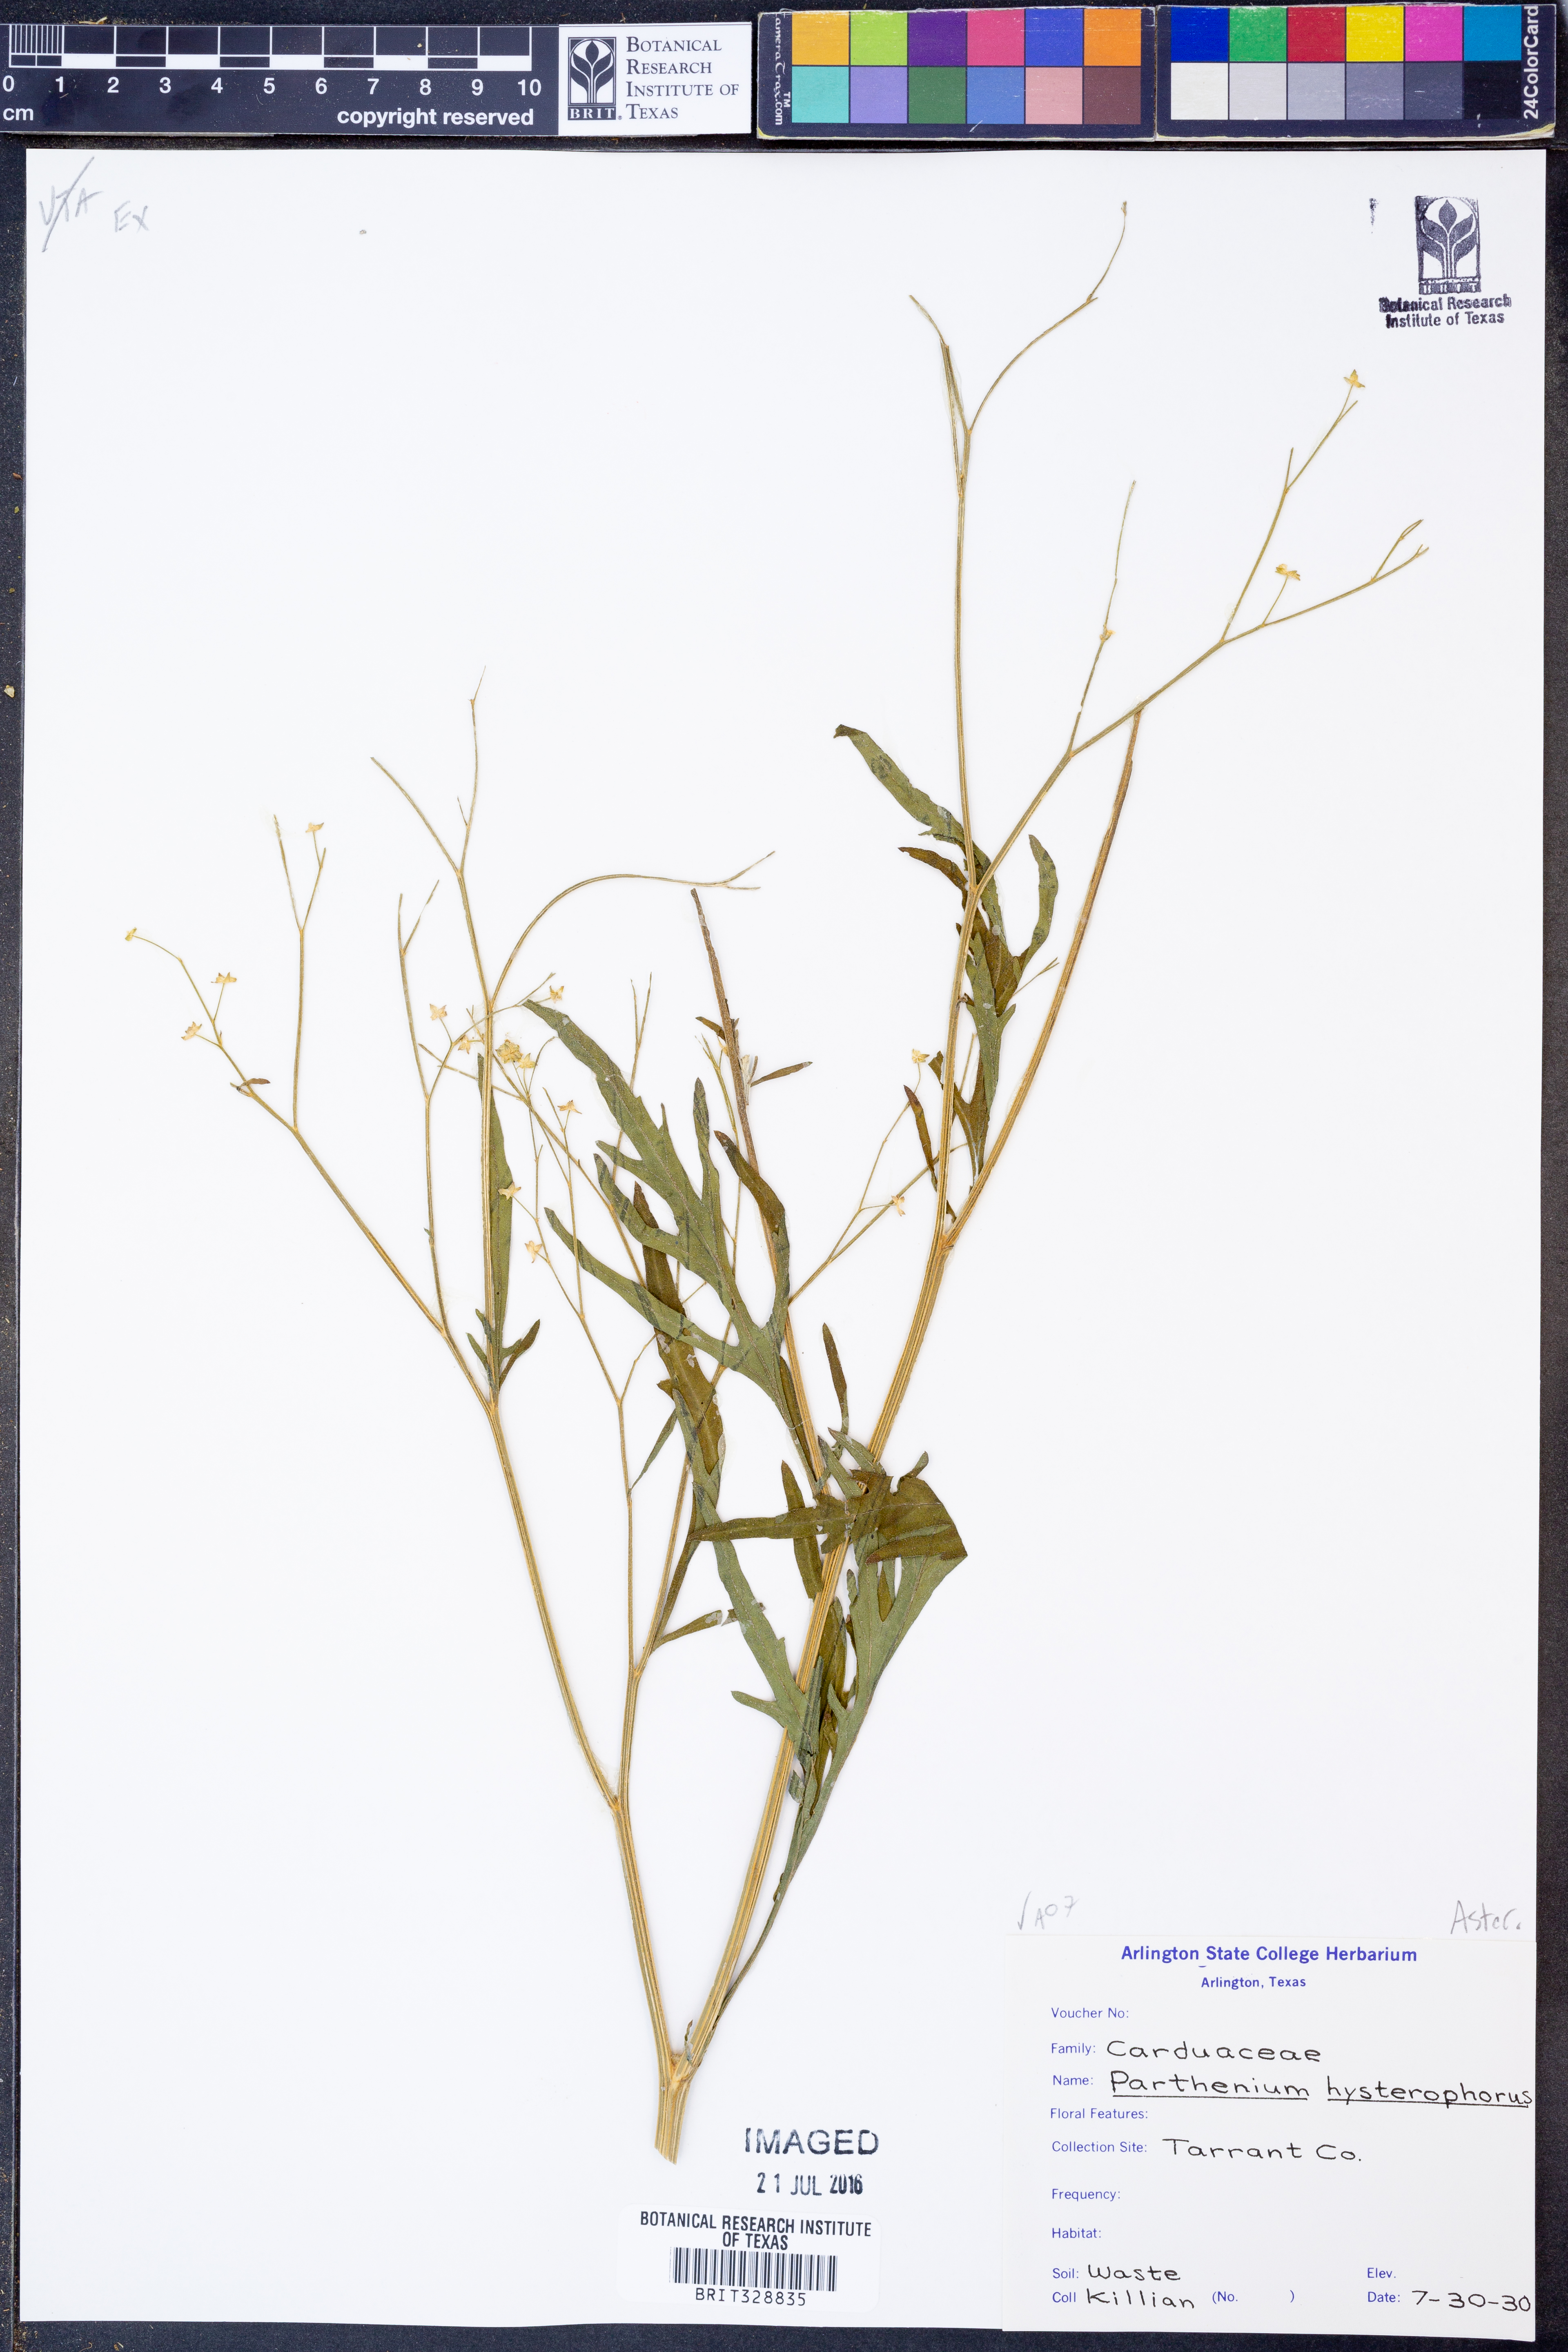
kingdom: Plantae
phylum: Tracheophyta
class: Magnoliopsida
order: Asterales
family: Asteraceae
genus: Parthenium
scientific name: Parthenium hysterophorus
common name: Santa maria feverfew
